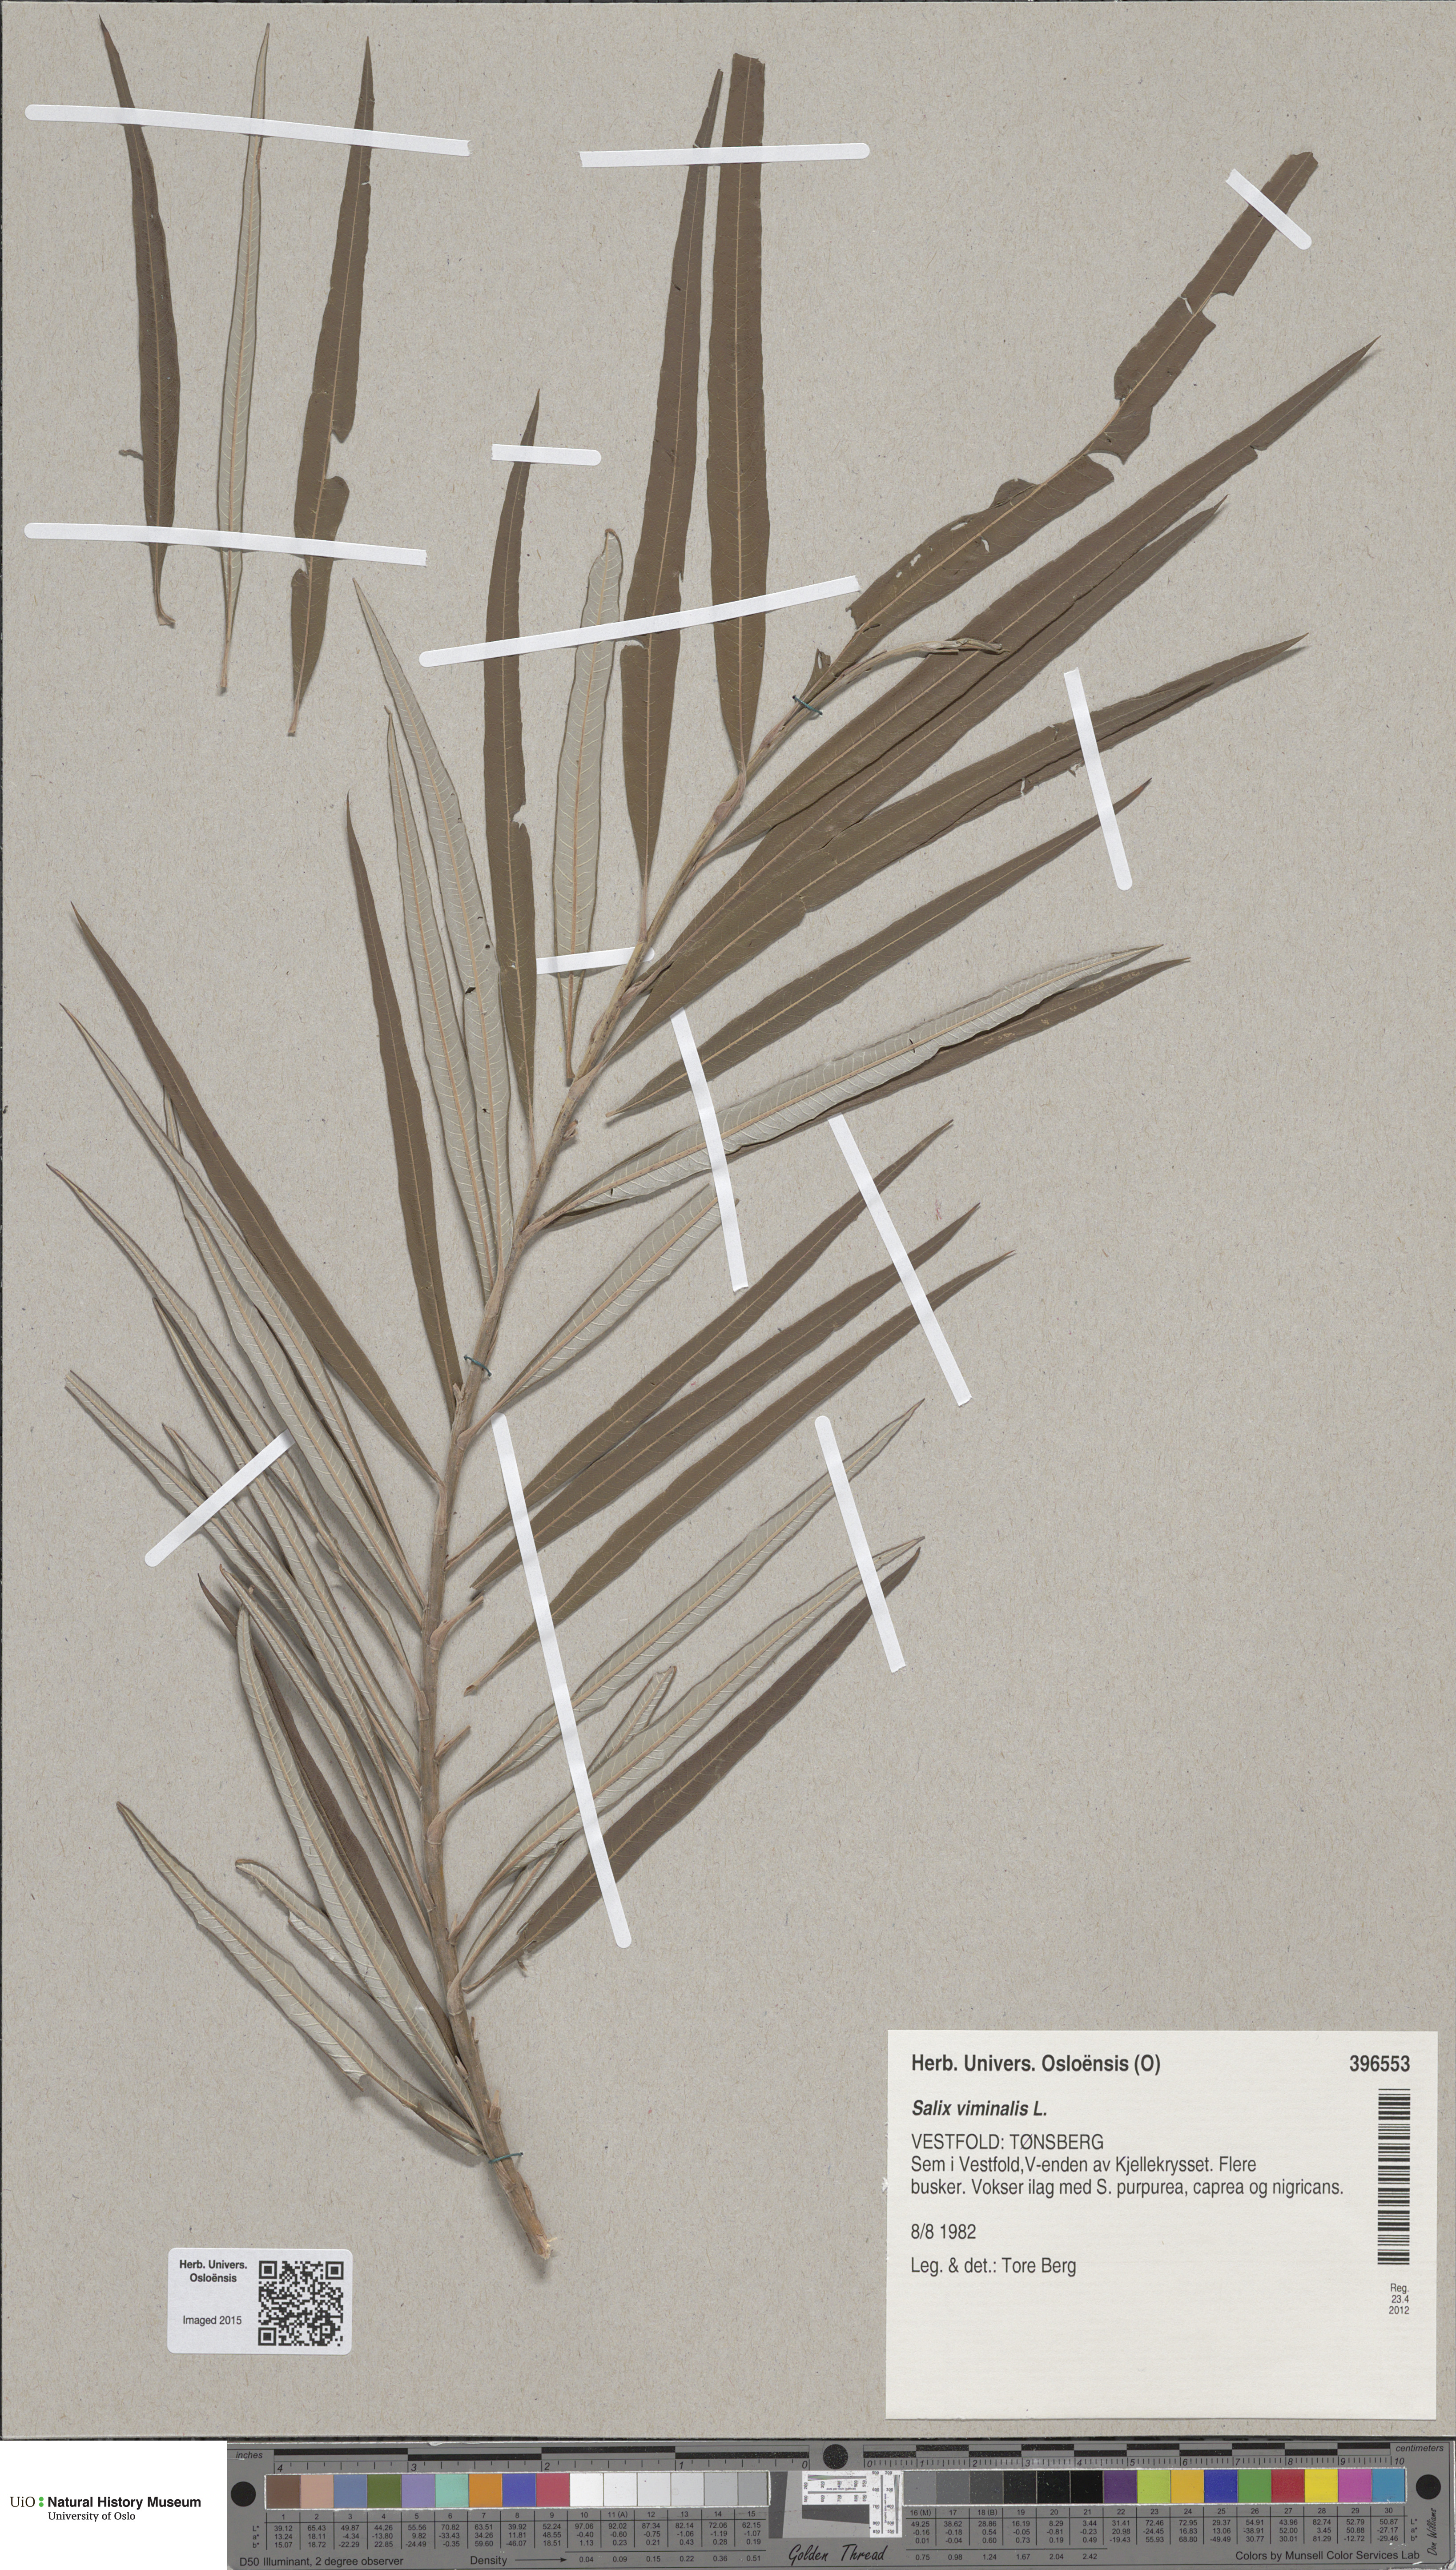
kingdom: Plantae
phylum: Tracheophyta
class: Magnoliopsida
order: Malpighiales
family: Salicaceae
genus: Salix
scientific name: Salix viminalis
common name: Osier
